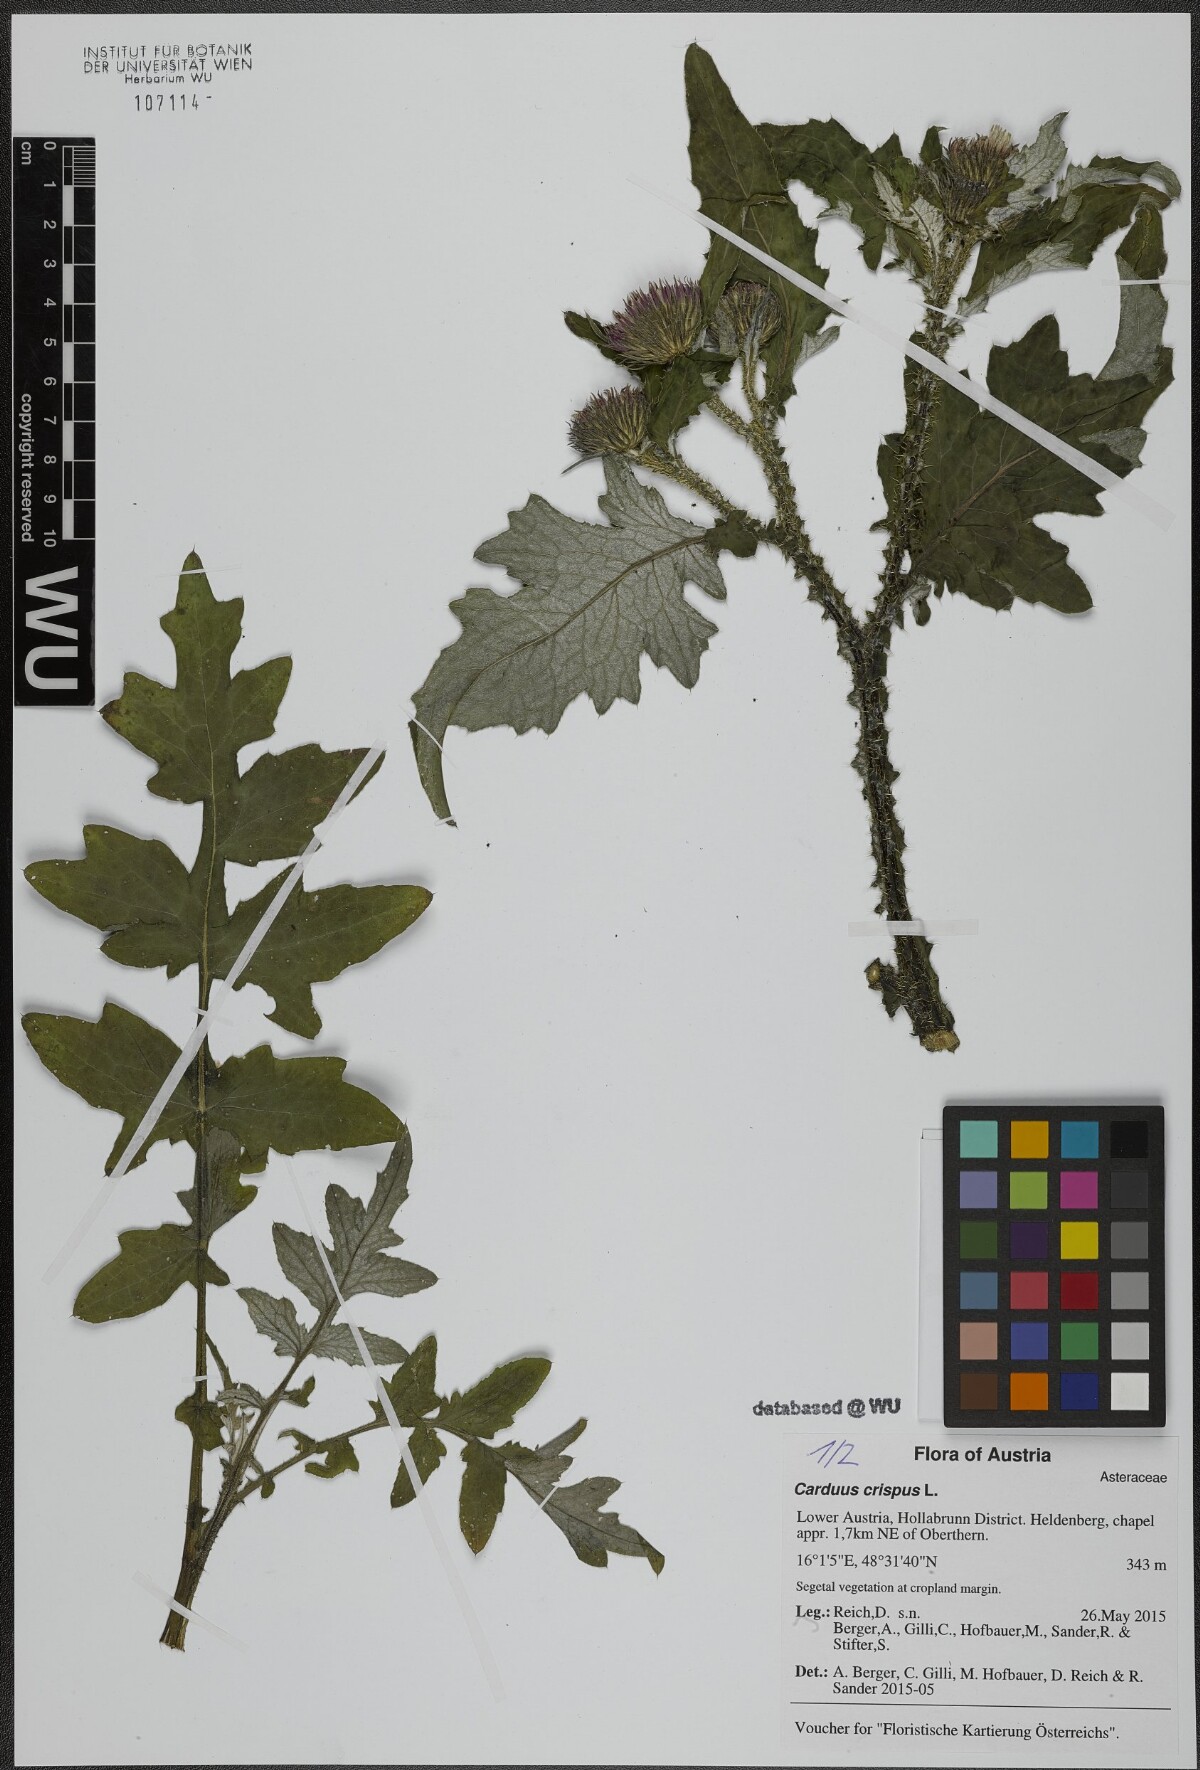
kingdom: Plantae
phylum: Tracheophyta
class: Magnoliopsida
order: Asterales
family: Asteraceae
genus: Carduus
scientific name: Carduus crispus
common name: Welted thistle
